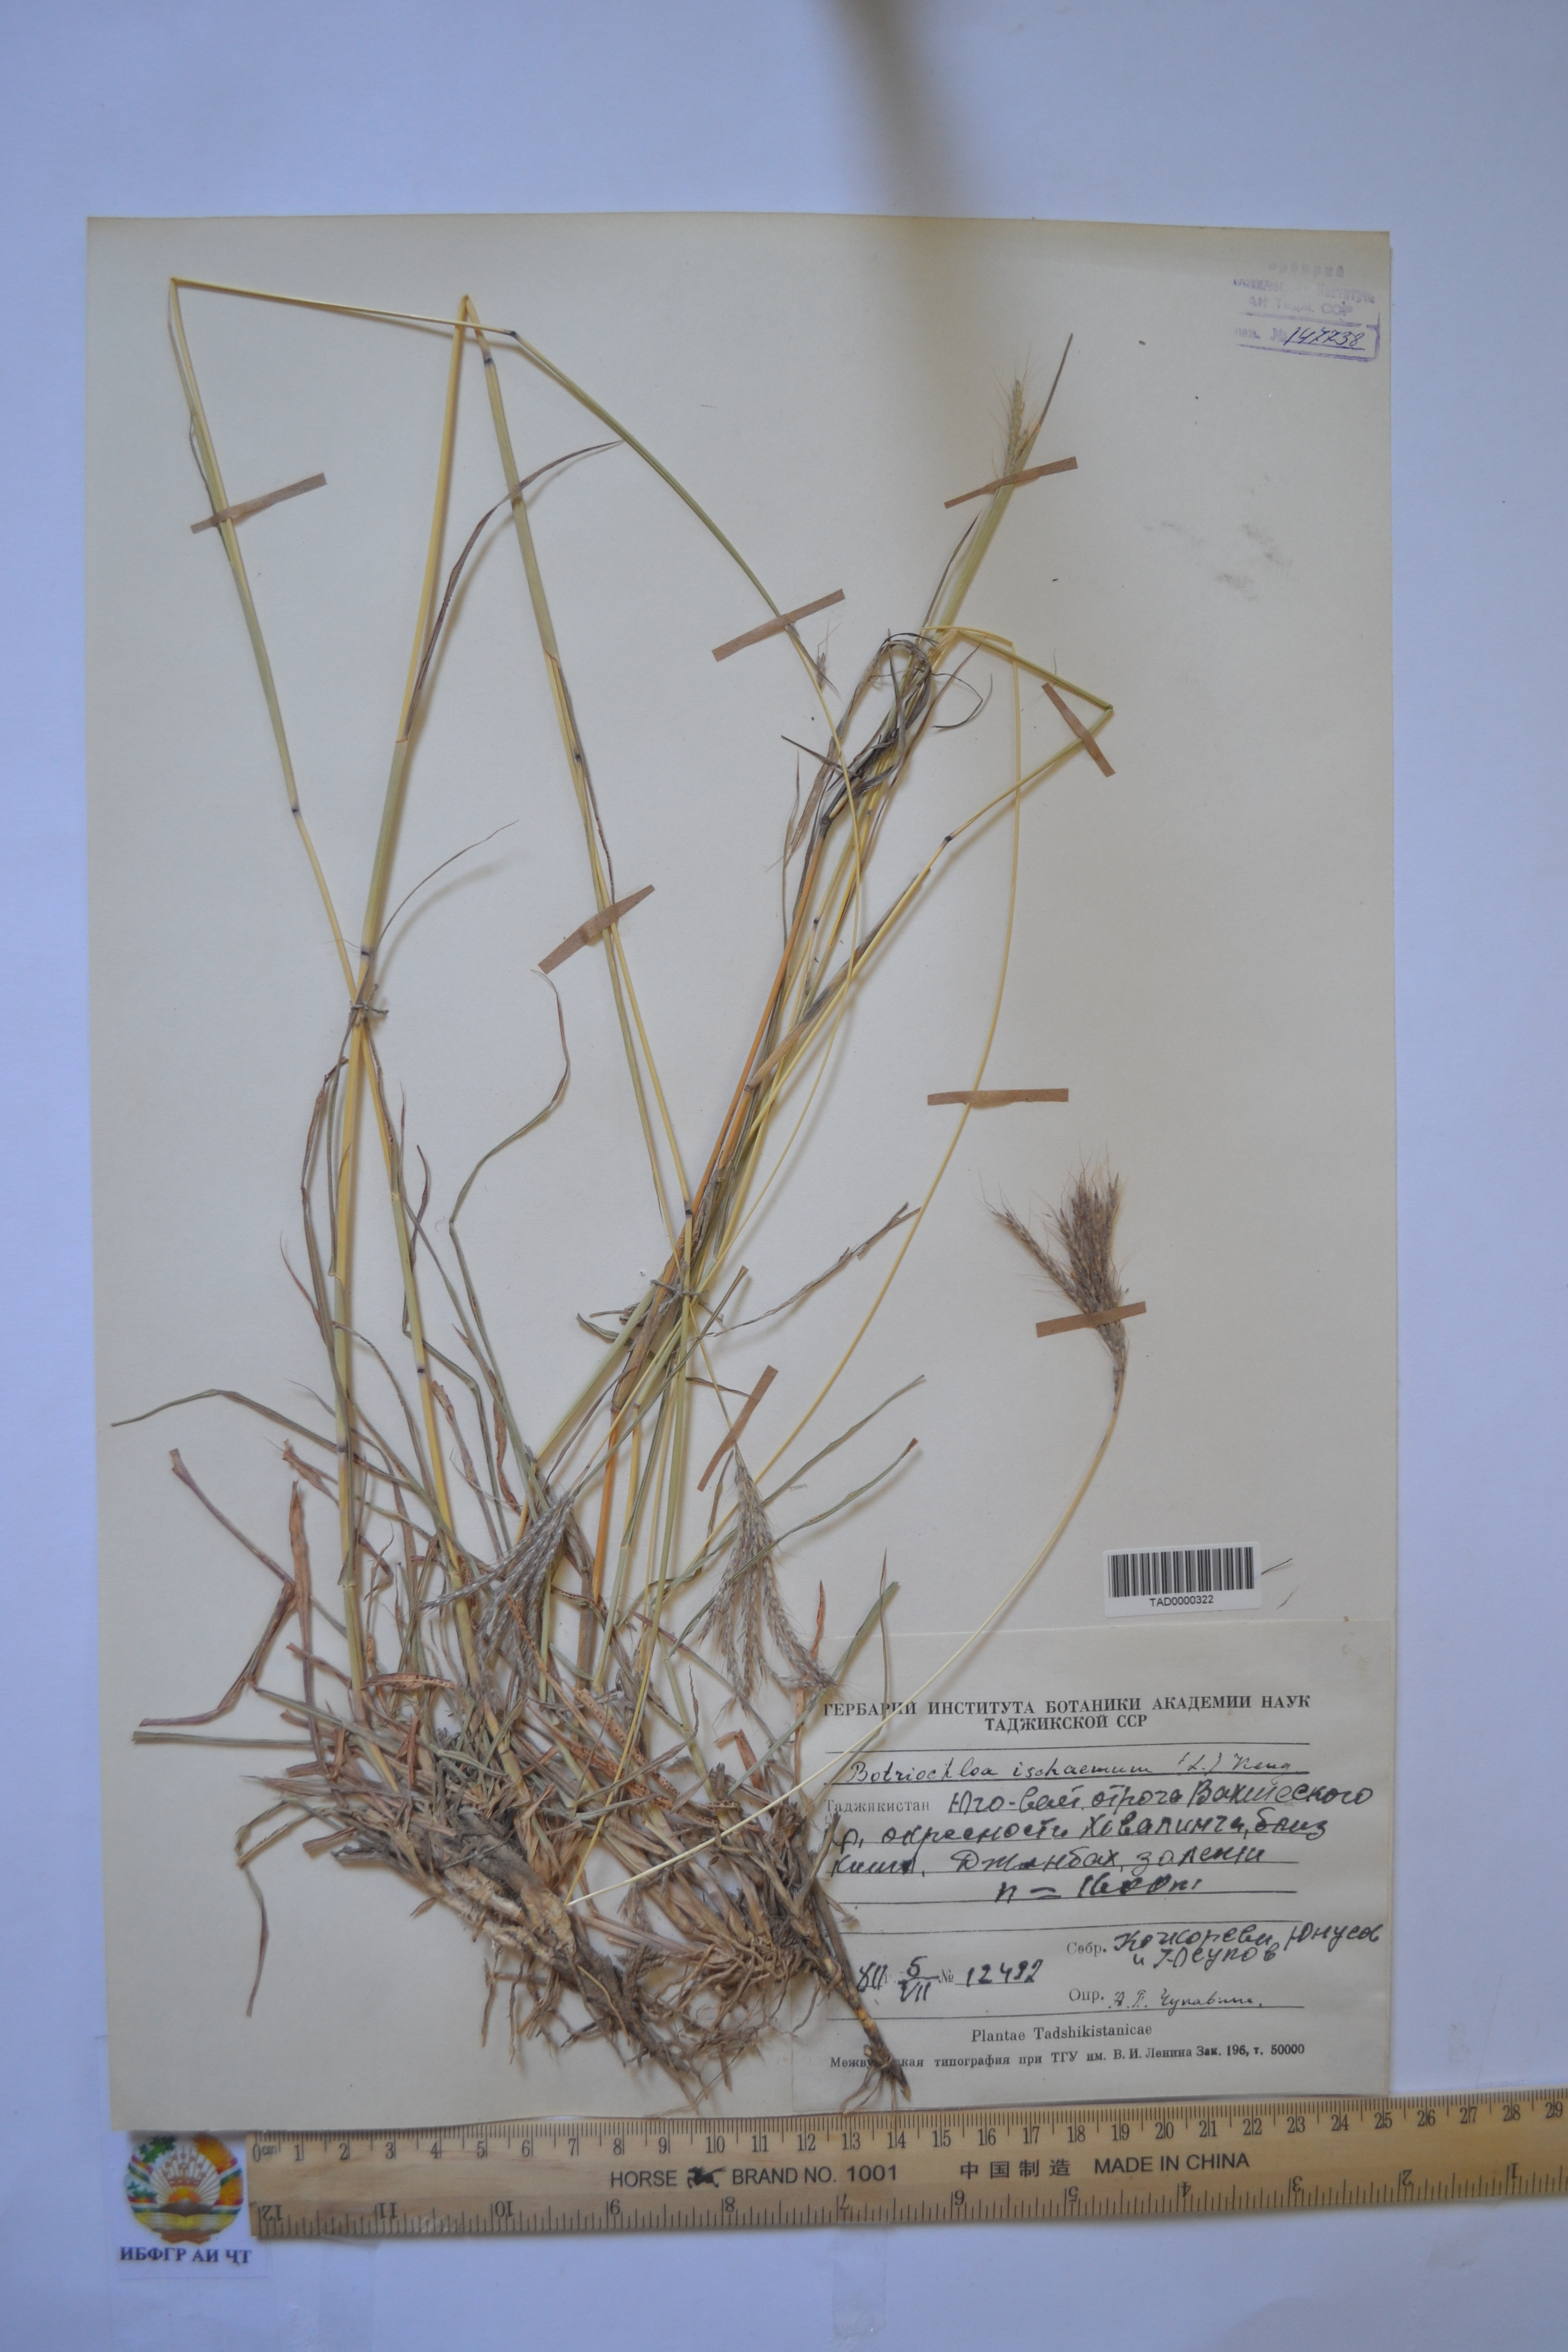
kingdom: Plantae
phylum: Tracheophyta
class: Liliopsida
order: Poales
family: Poaceae
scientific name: Poaceae
